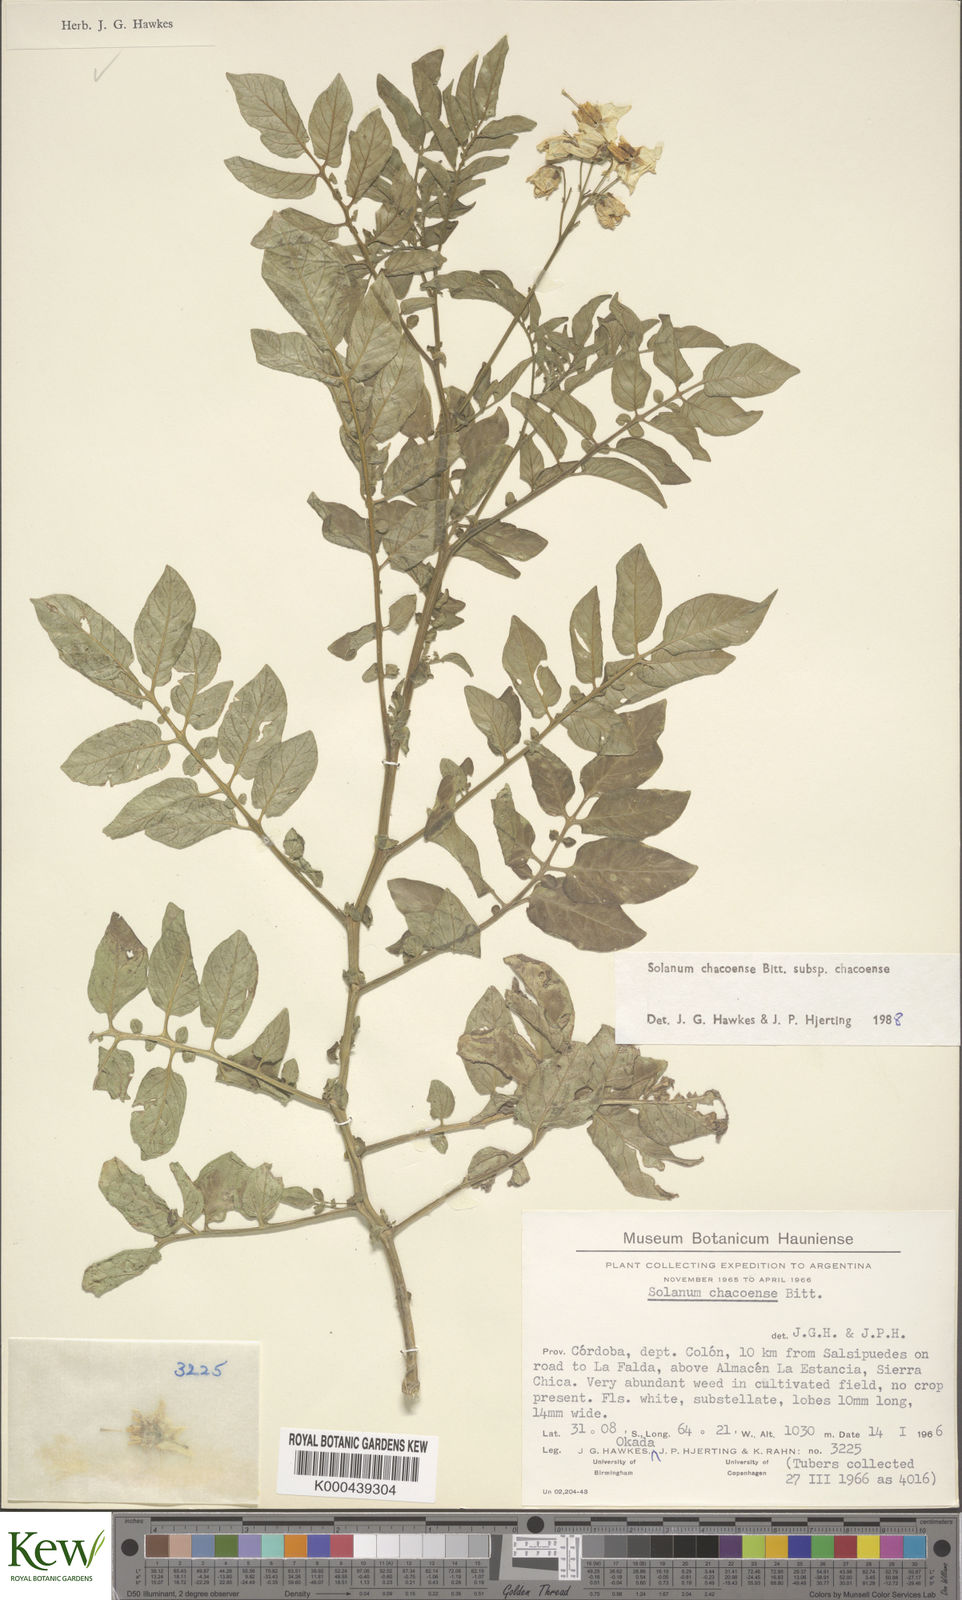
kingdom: Plantae
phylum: Tracheophyta
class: Magnoliopsida
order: Solanales
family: Solanaceae
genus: Solanum
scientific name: Solanum chacoense
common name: Chaco potato
